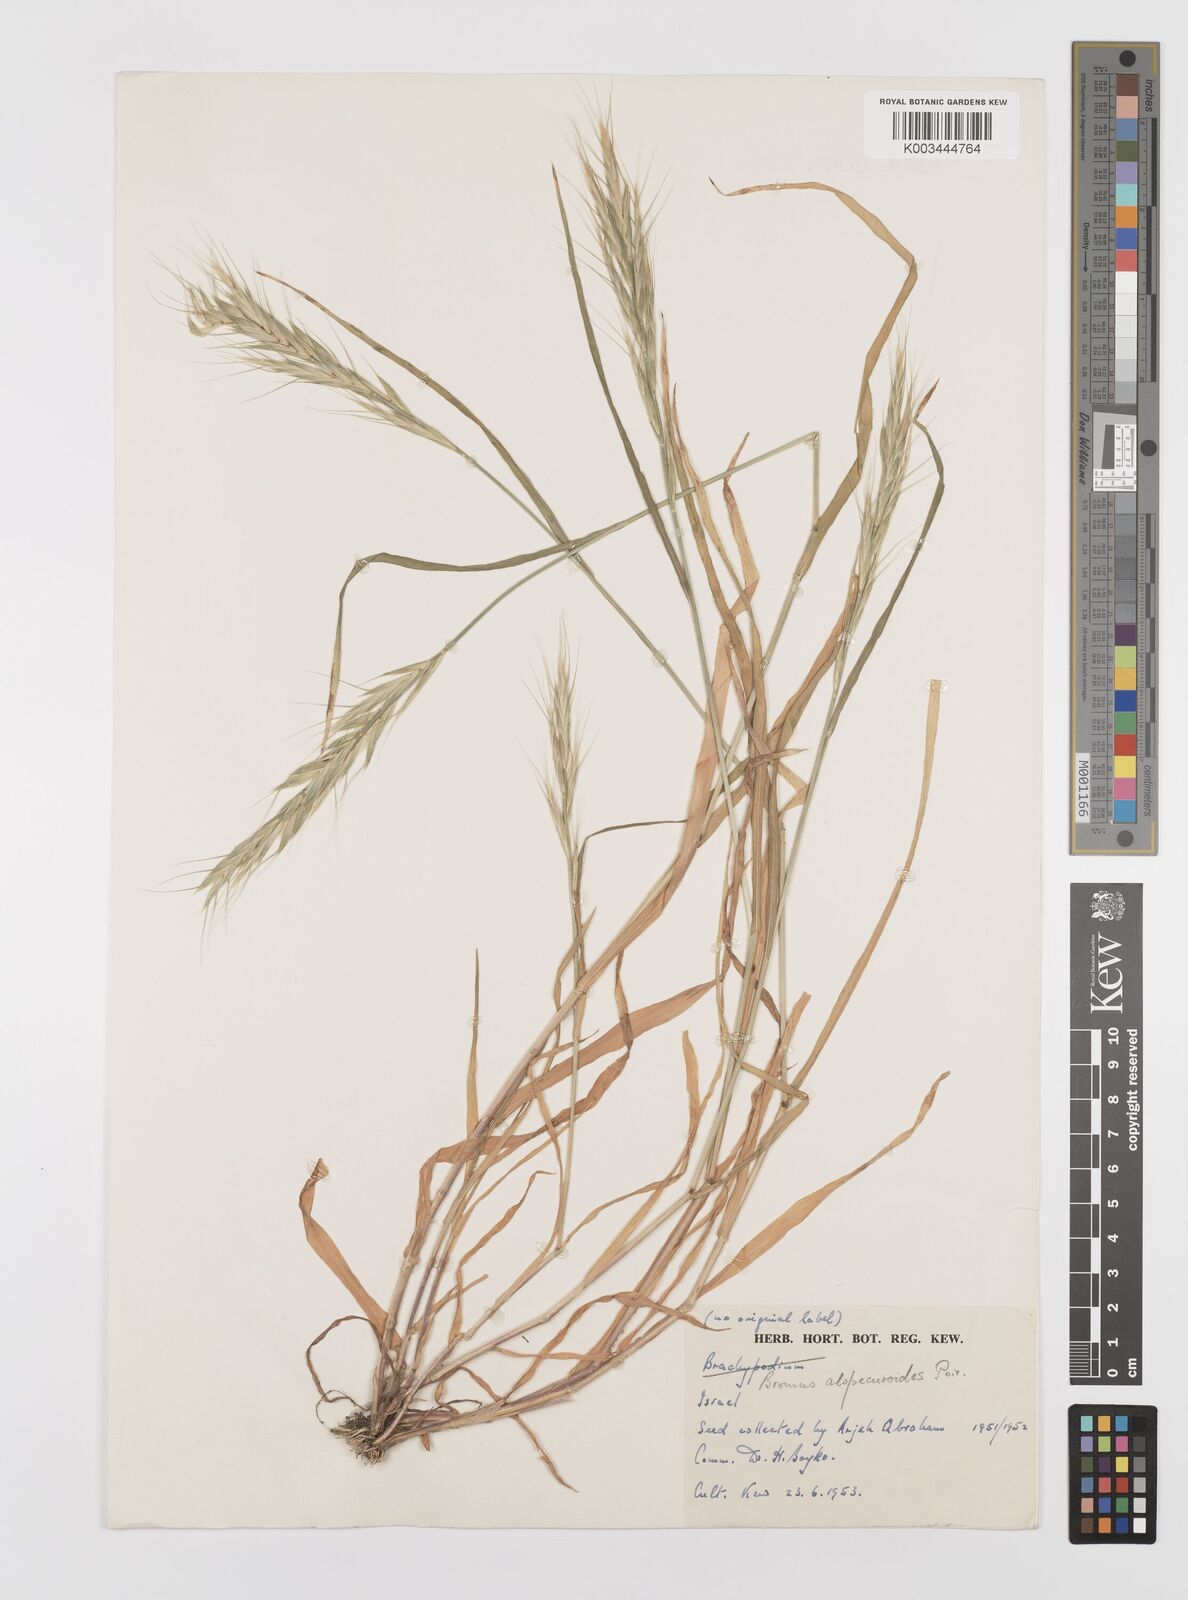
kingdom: Plantae
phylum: Tracheophyta
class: Liliopsida
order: Poales
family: Poaceae
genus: Bromus
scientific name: Bromus alopecuros
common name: Weedy brome
